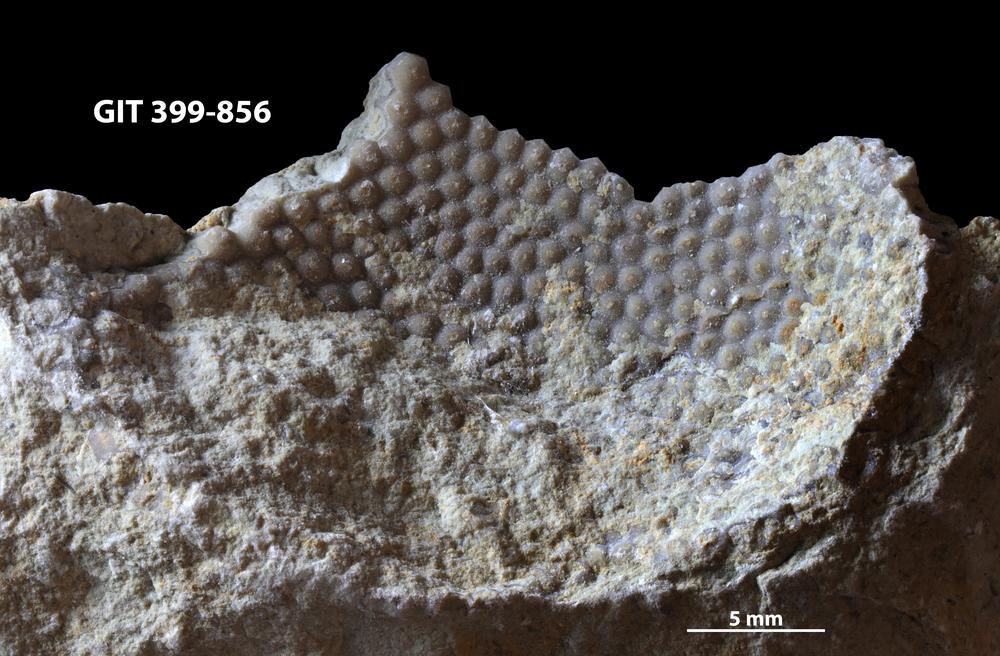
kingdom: Plantae
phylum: Chlorophyta
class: Ulvophyceae
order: Cyclocrinales
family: Cyclocrinaceae
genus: Mastopora
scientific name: Mastopora concava
